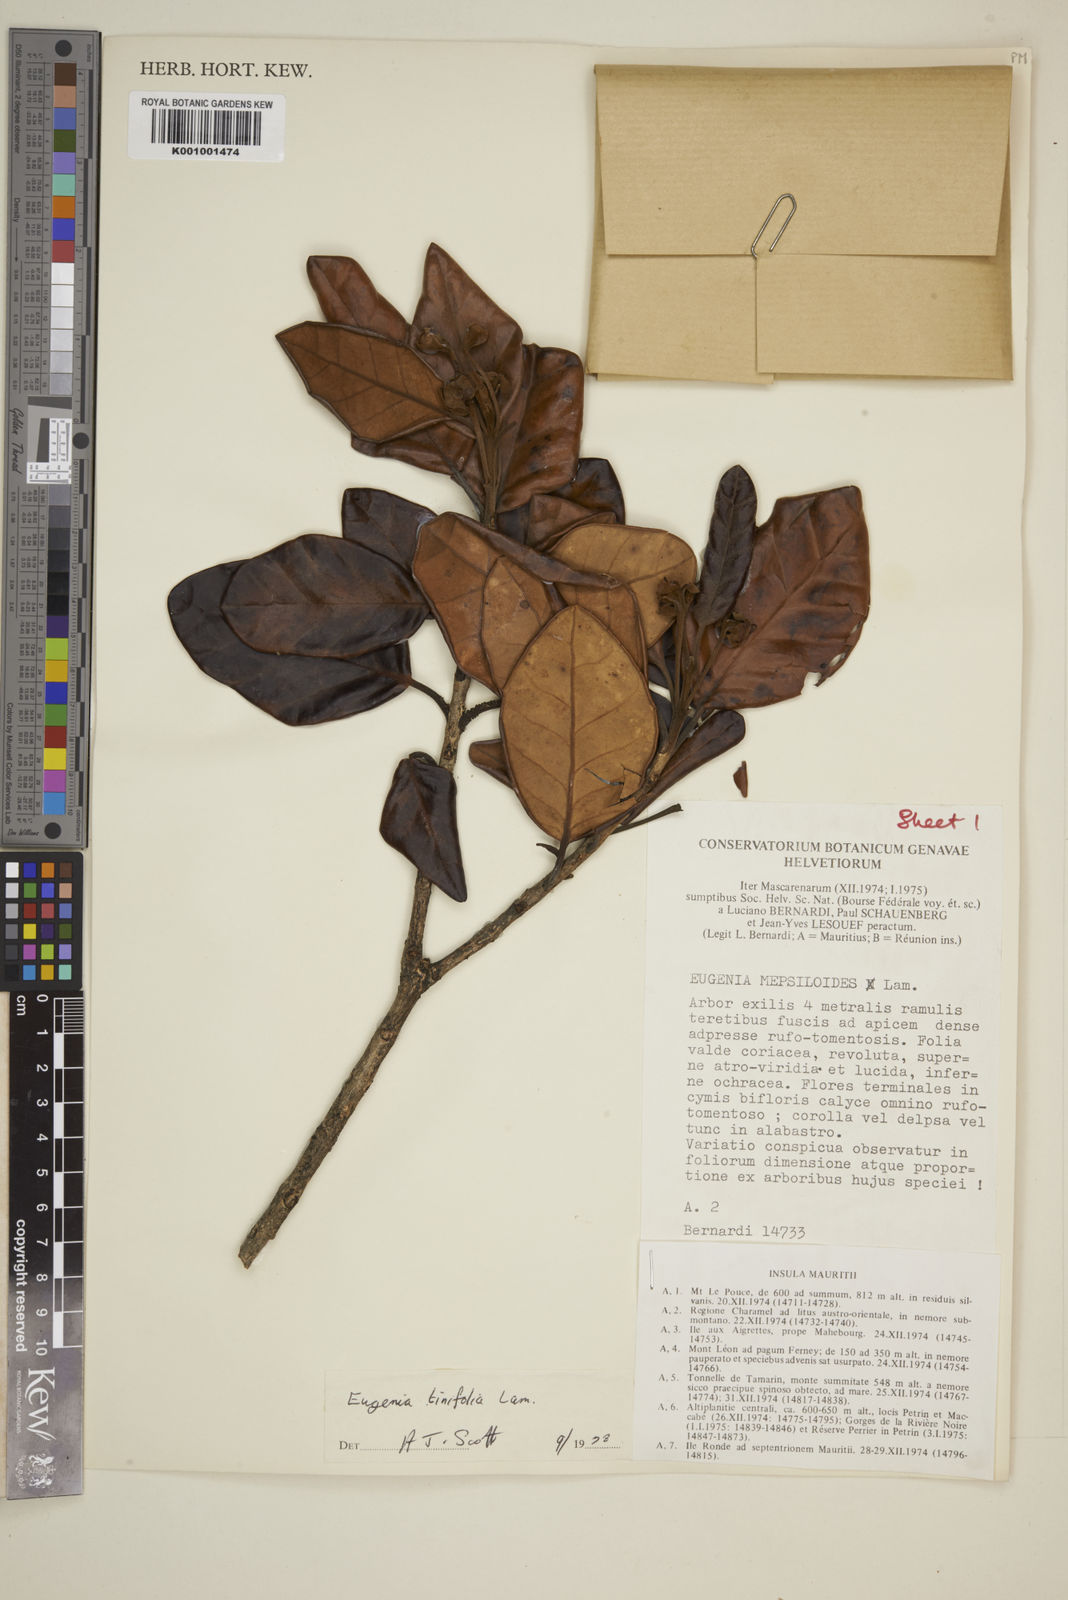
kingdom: Plantae
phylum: Tracheophyta
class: Magnoliopsida
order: Myrtales
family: Myrtaceae
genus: Eugenia
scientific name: Eugenia mespiloides
